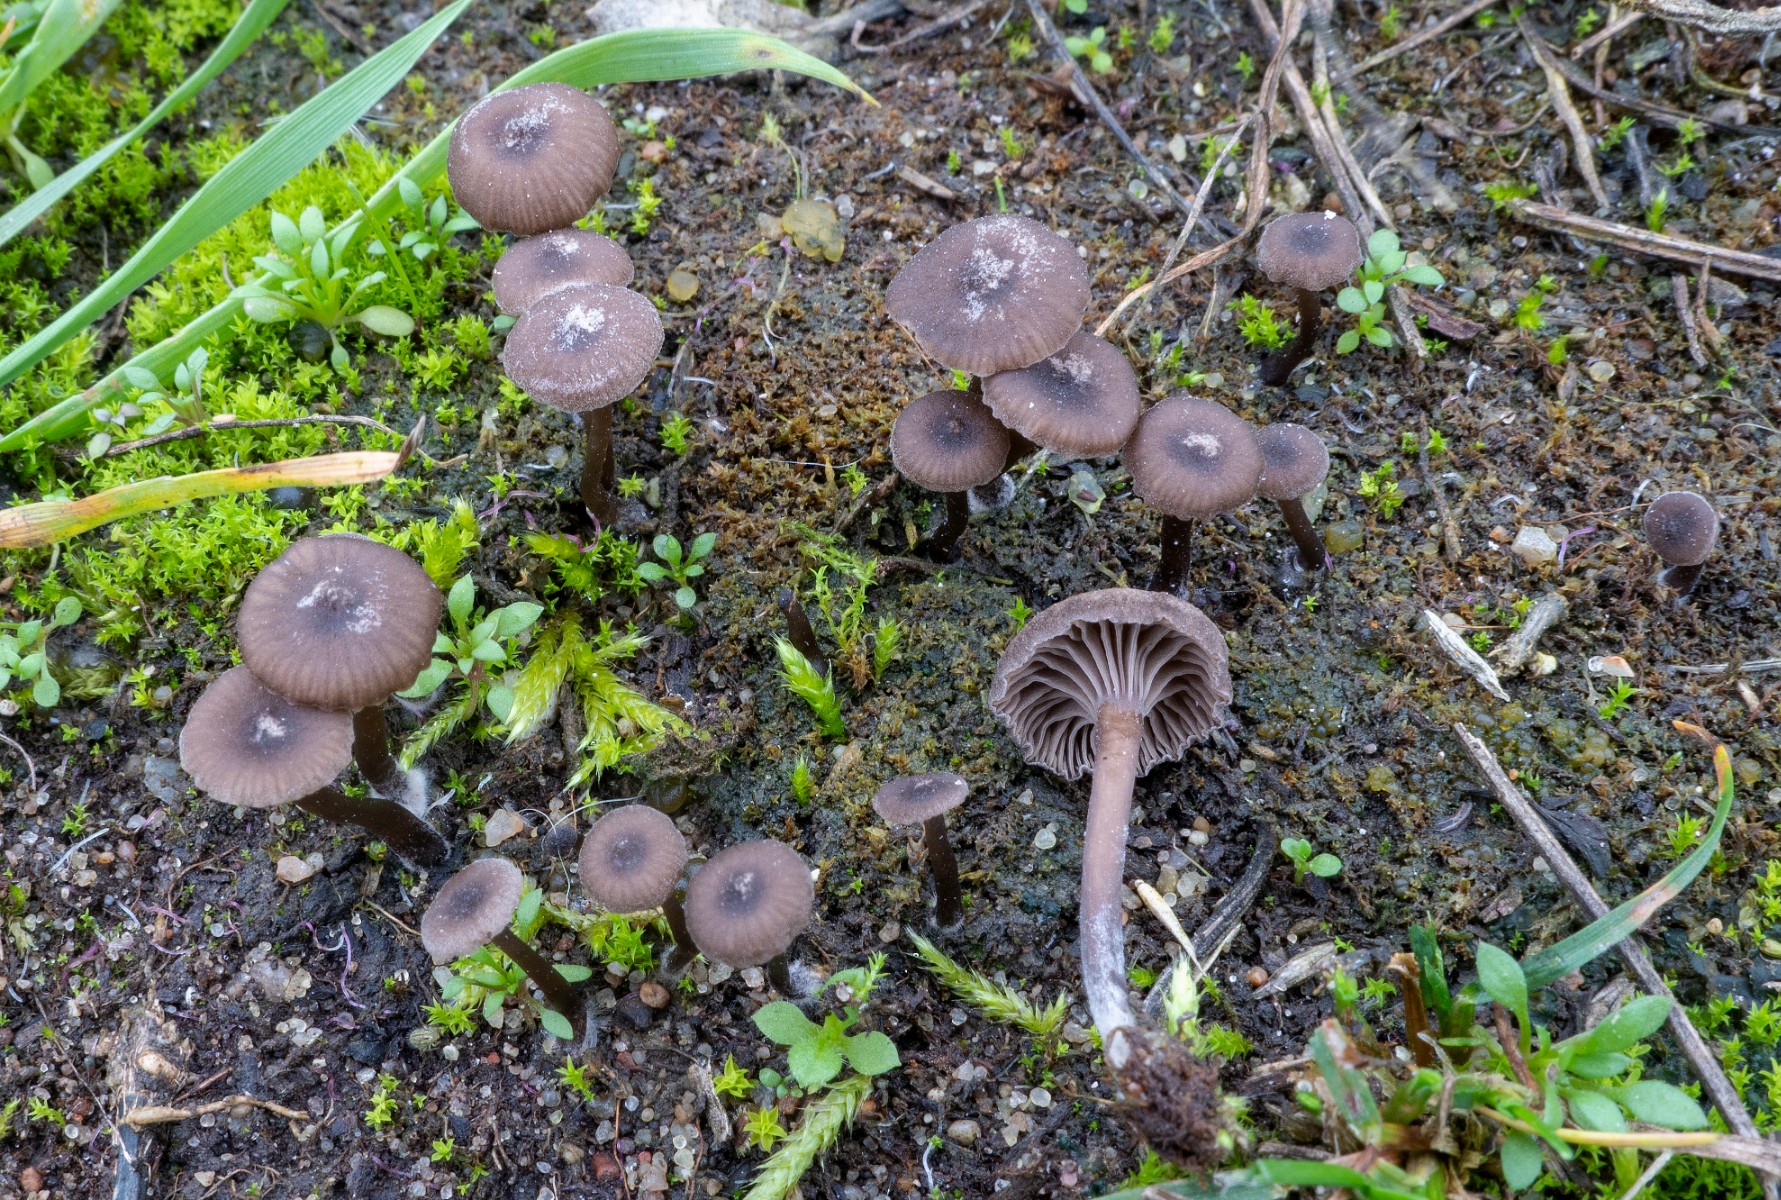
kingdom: Fungi
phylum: Basidiomycota
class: Agaricomycetes
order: Agaricales
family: Hygrophoraceae
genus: Arrhenia
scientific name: Arrhenia baeospora
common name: mel-fontænehat
